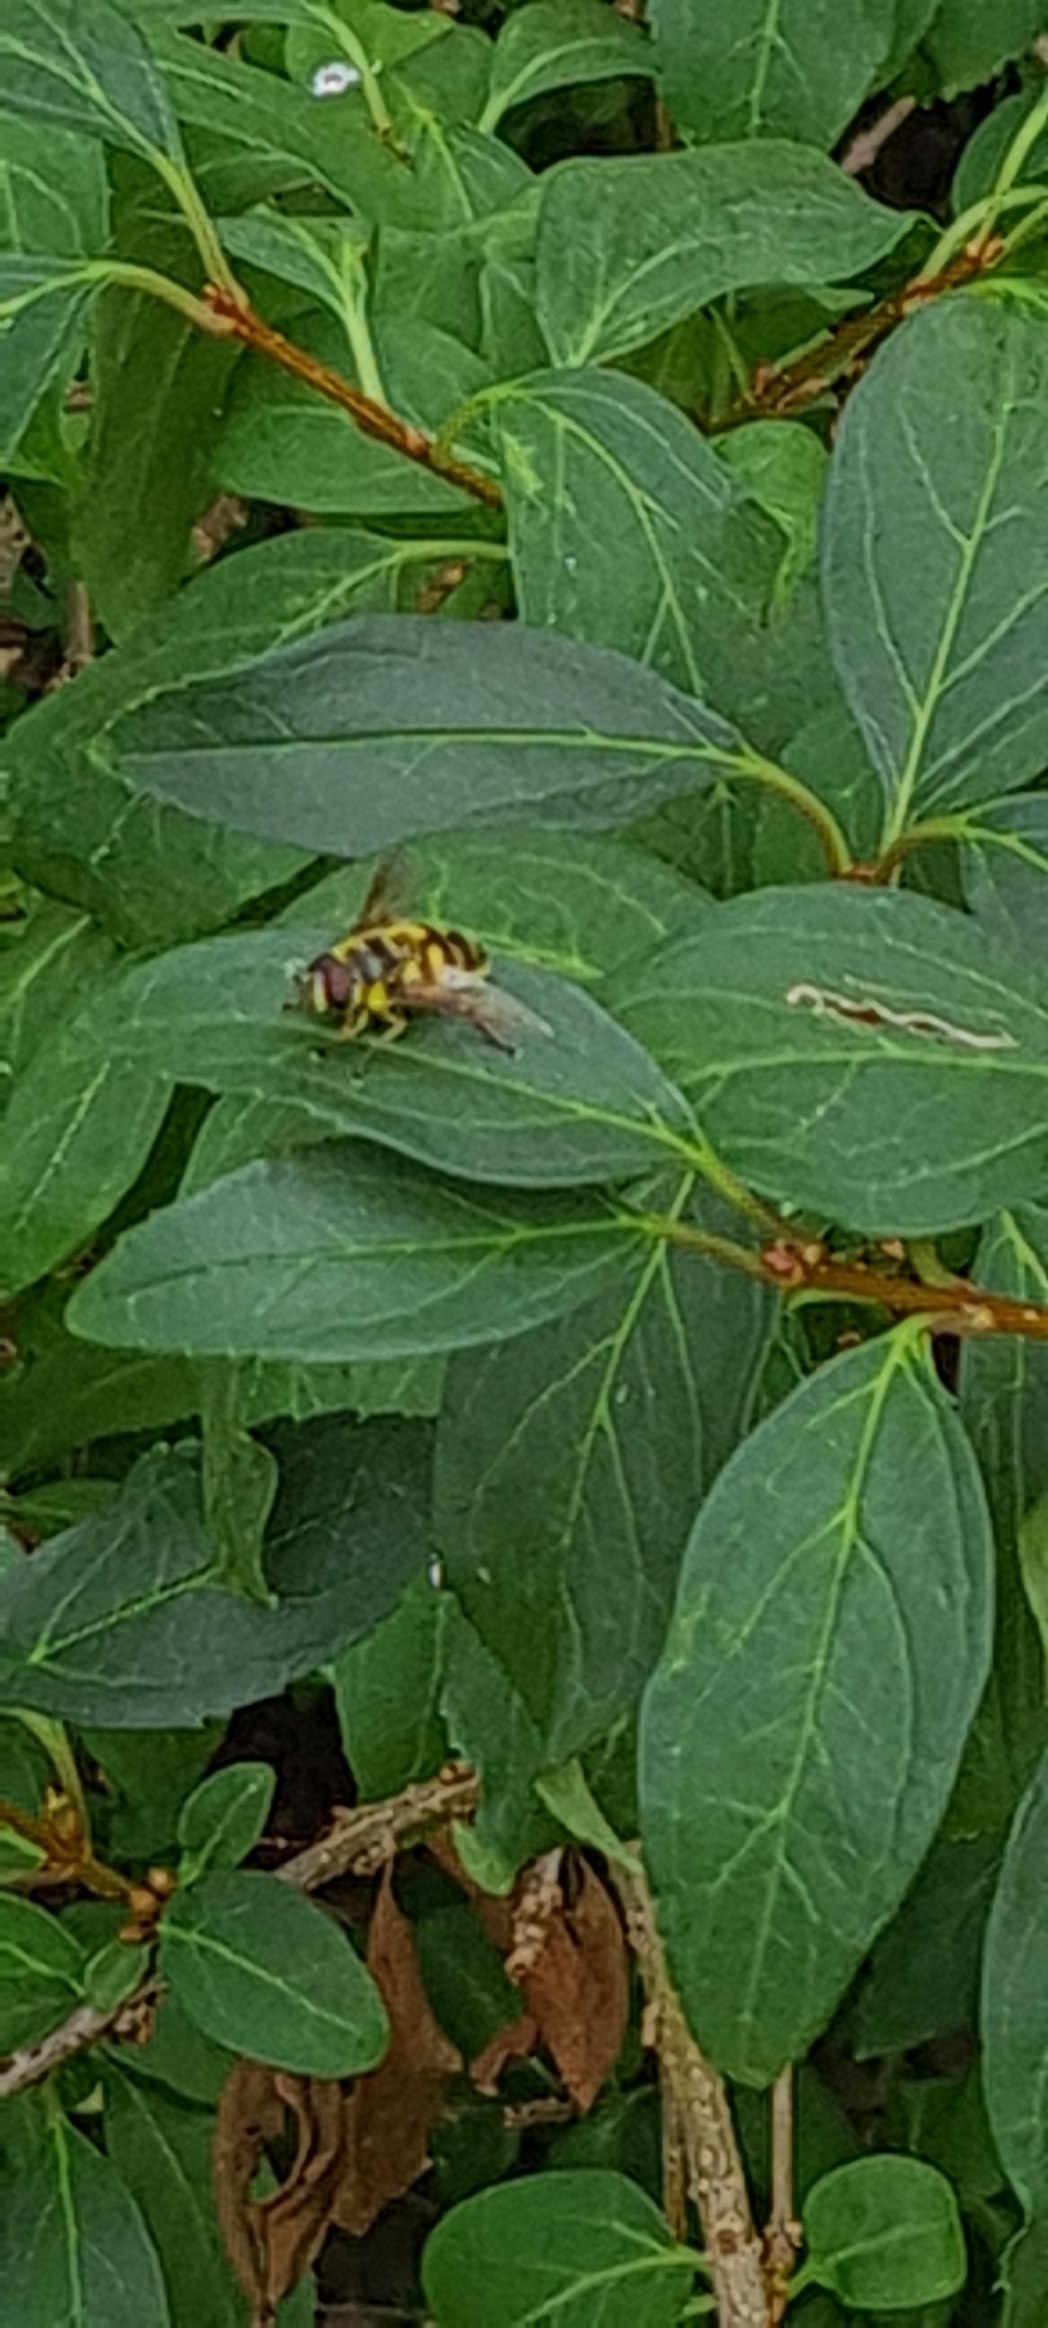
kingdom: Animalia
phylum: Arthropoda
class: Insecta
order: Diptera
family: Syrphidae
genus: Myathropa
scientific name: Myathropa florea
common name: Dødningehoved-svirreflue
